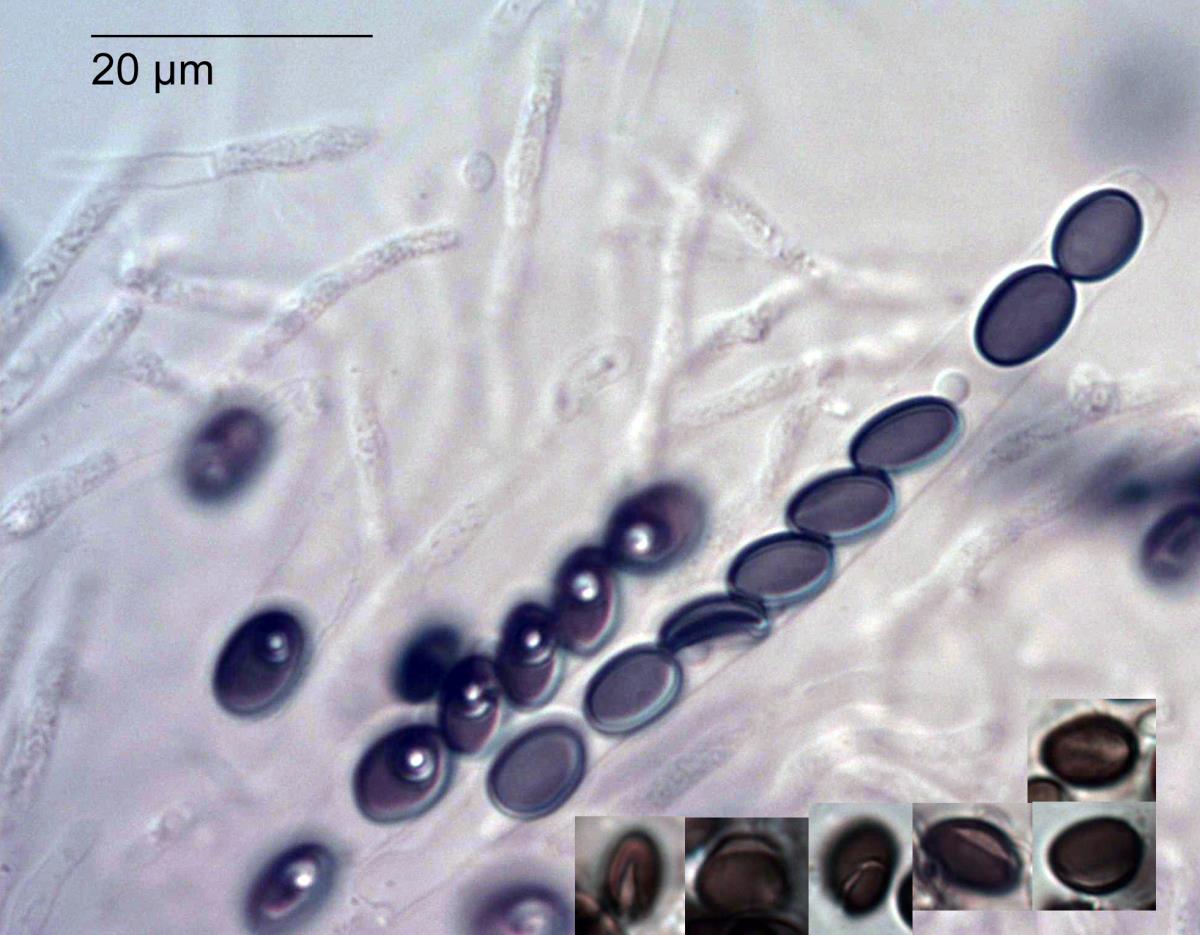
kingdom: Fungi
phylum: Ascomycota
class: Sordariomycetes
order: Xylariales
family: Xylariaceae
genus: Rosellinia
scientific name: Rosellinia
